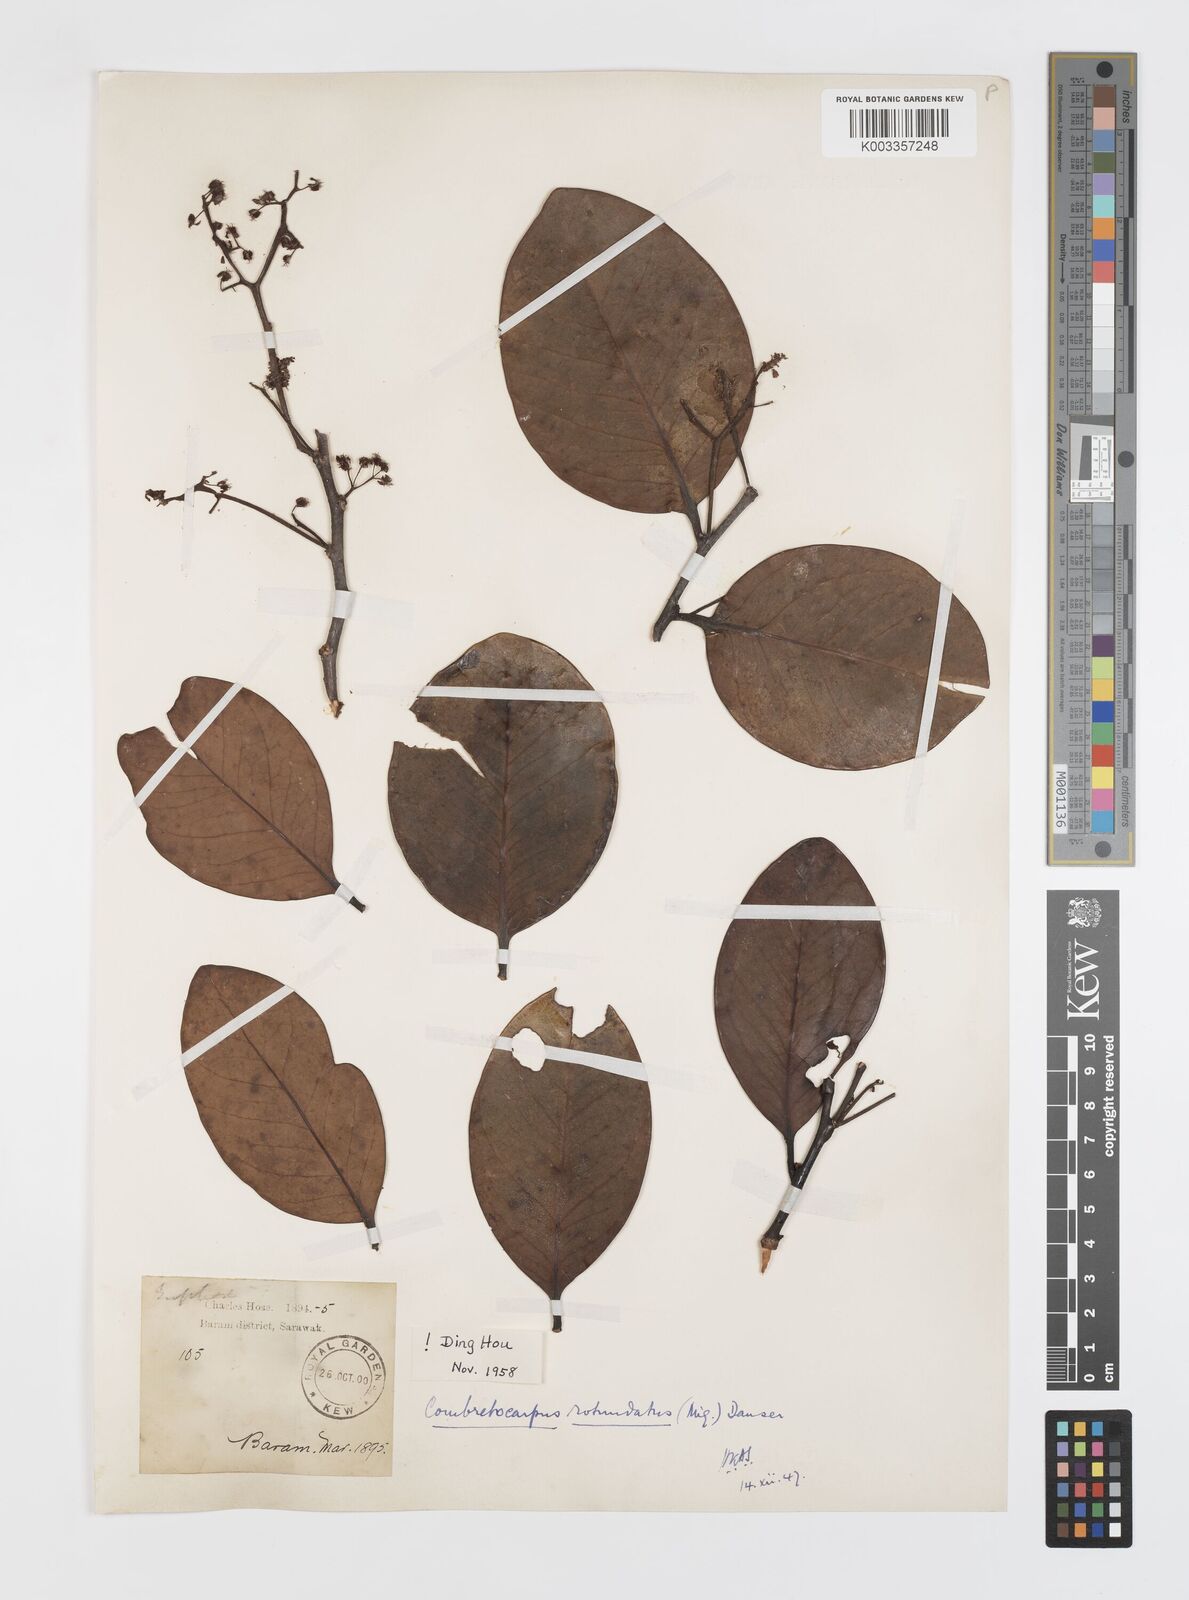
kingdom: Plantae
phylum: Tracheophyta
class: Magnoliopsida
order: Cucurbitales
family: Anisophylleaceae
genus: Combretocarpus
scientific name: Combretocarpus rotundatus
